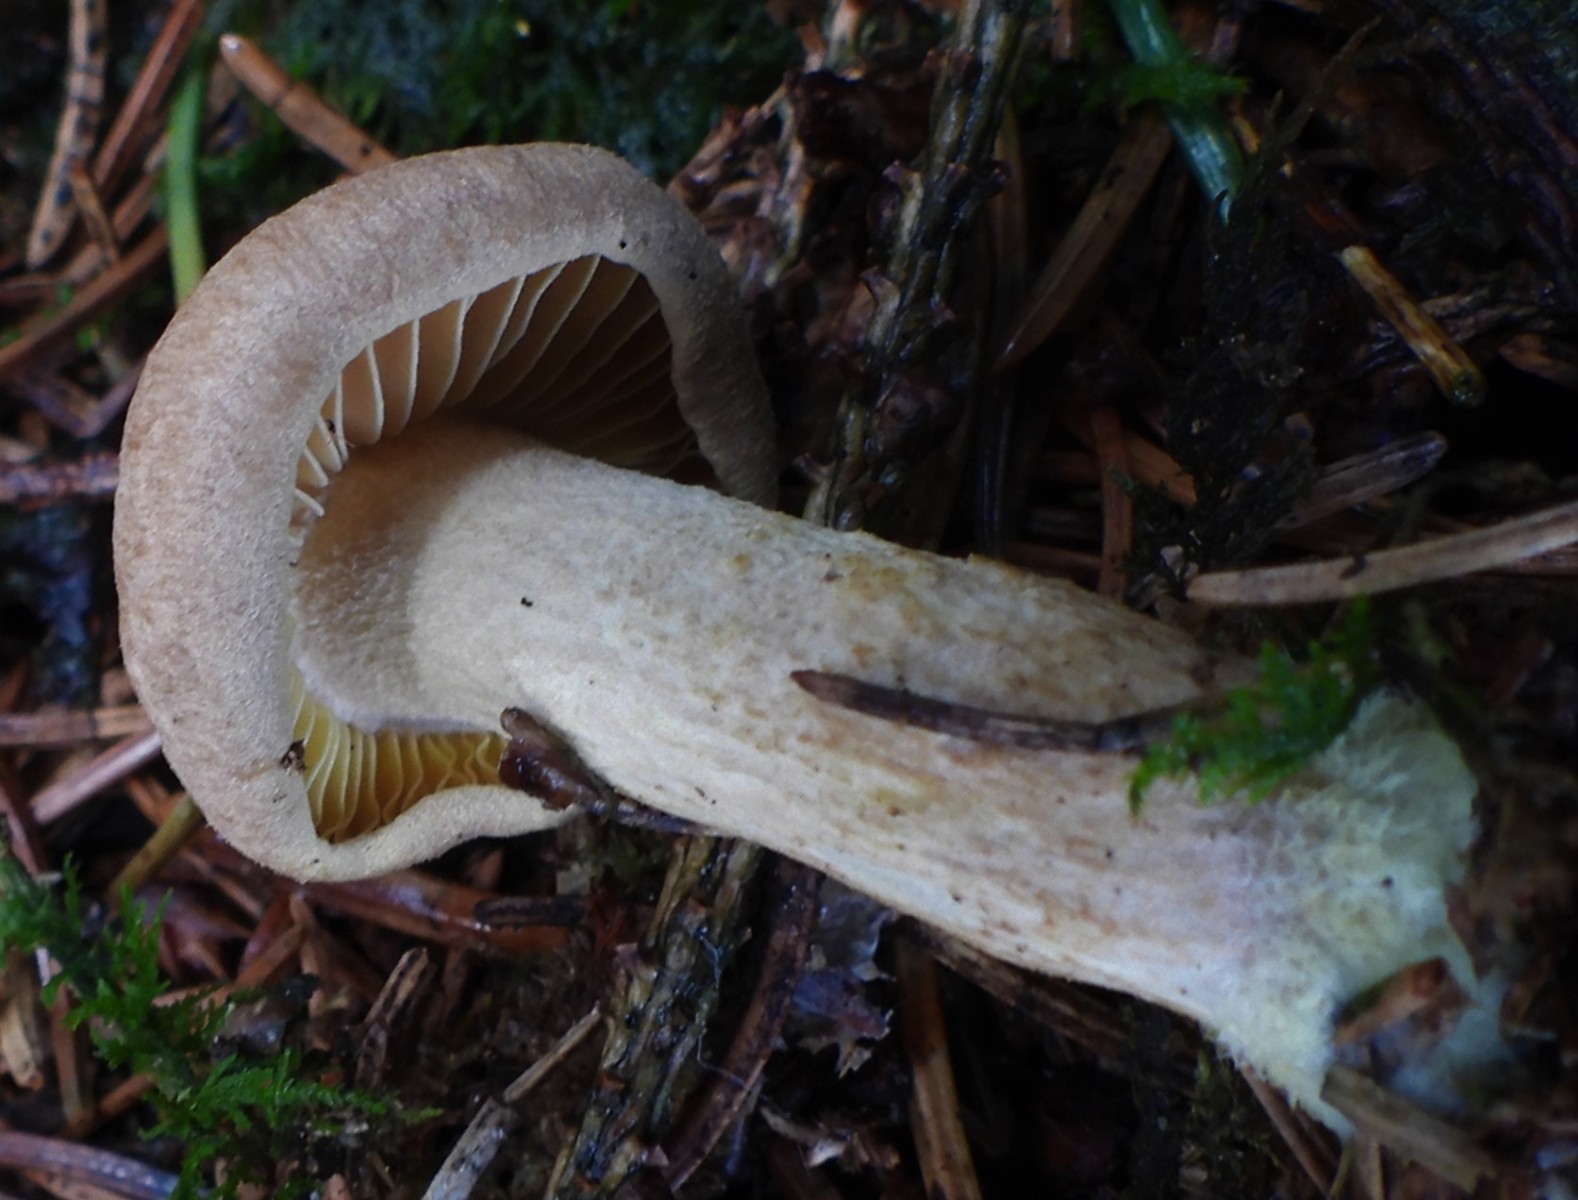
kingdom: Fungi
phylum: Basidiomycota
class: Agaricomycetes
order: Agaricales
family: Omphalotaceae
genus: Collybiopsis
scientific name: Collybiopsis peronata
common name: bestøvlet fladhat
